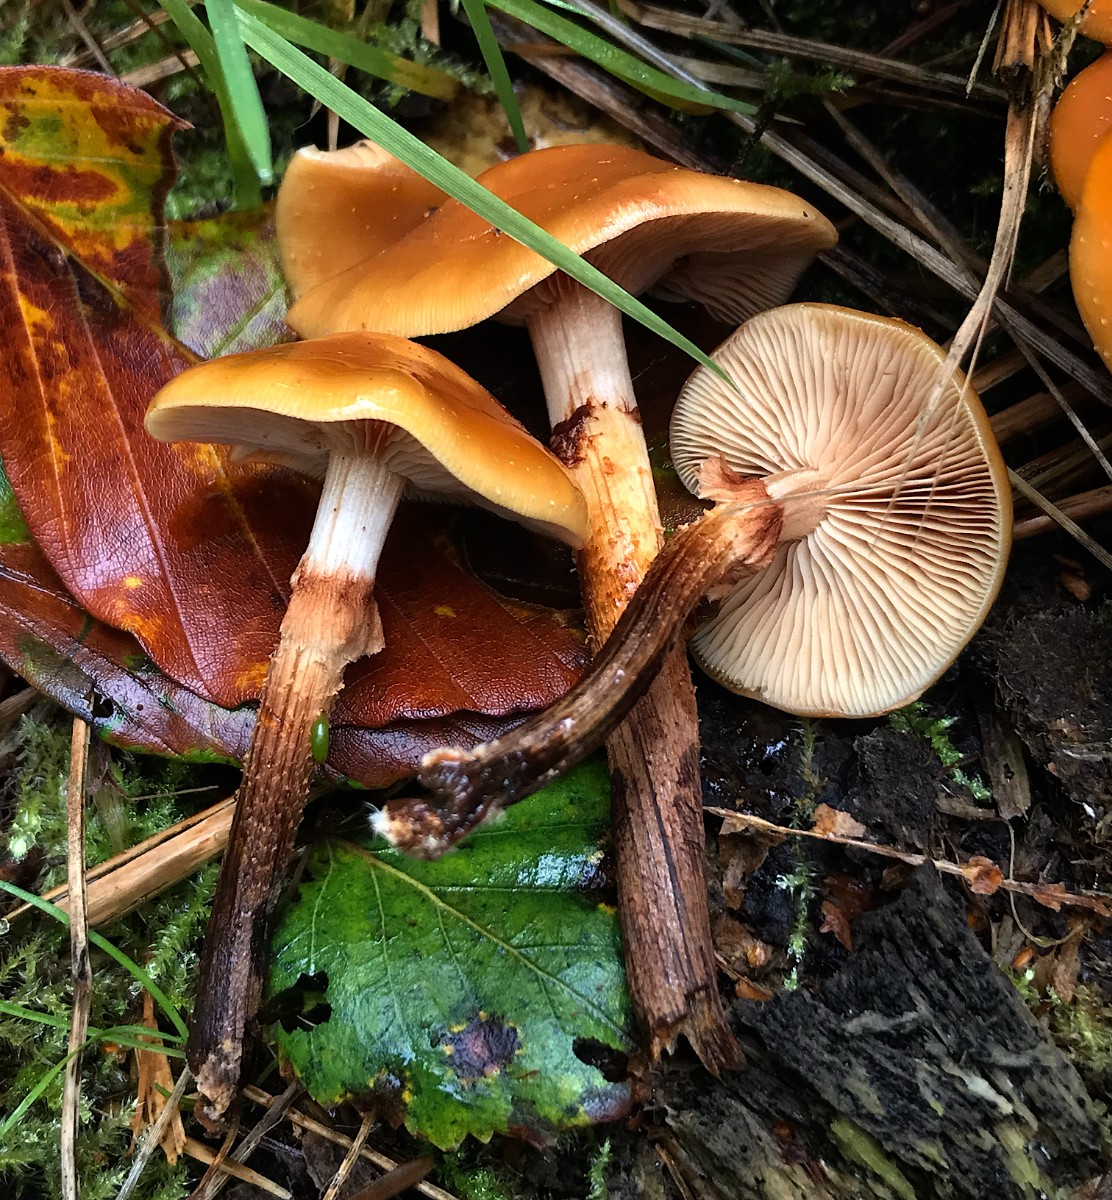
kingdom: Fungi
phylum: Basidiomycota
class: Agaricomycetes
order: Agaricales
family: Strophariaceae
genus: Kuehneromyces
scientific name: Kuehneromyces mutabilis
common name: foranderlig skælhat
